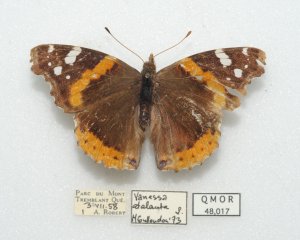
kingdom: Animalia
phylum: Arthropoda
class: Insecta
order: Lepidoptera
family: Nymphalidae
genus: Vanessa
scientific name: Vanessa atalanta
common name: Red Admiral
